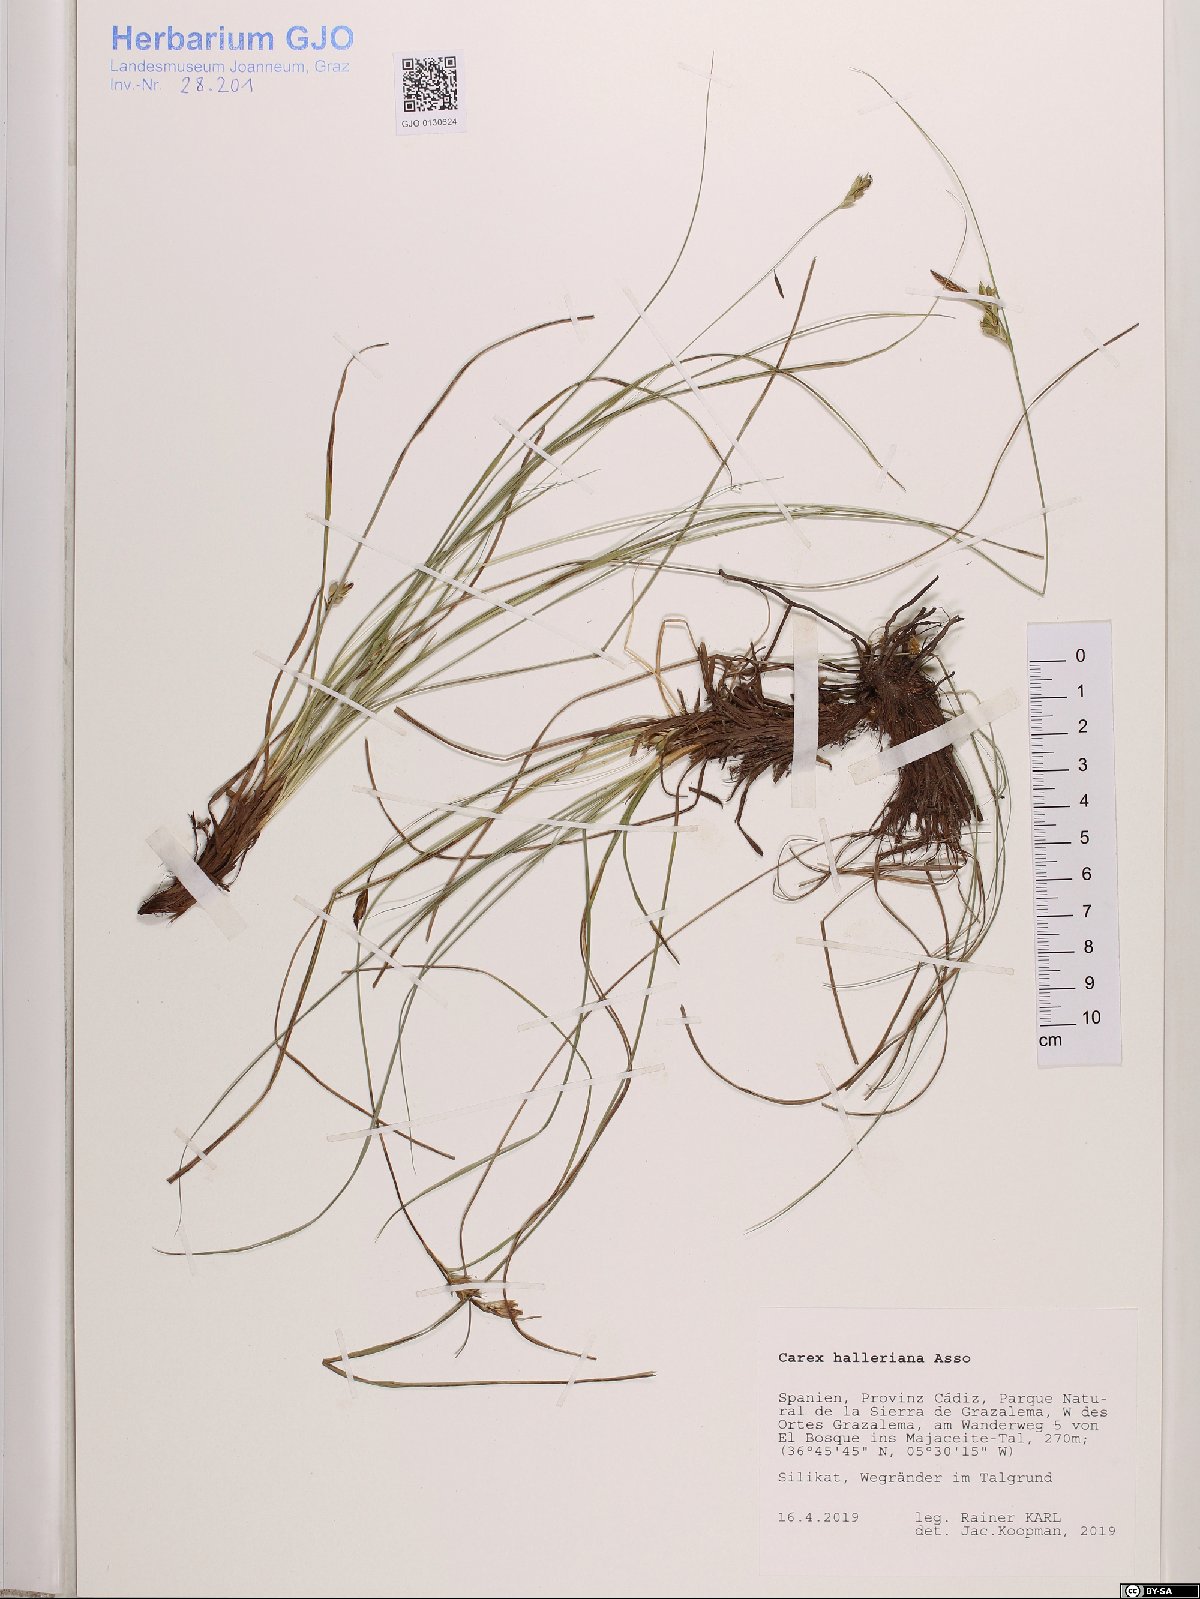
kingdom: Plantae
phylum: Tracheophyta
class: Liliopsida
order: Poales
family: Cyperaceae
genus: Carex
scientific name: Carex halleriana
